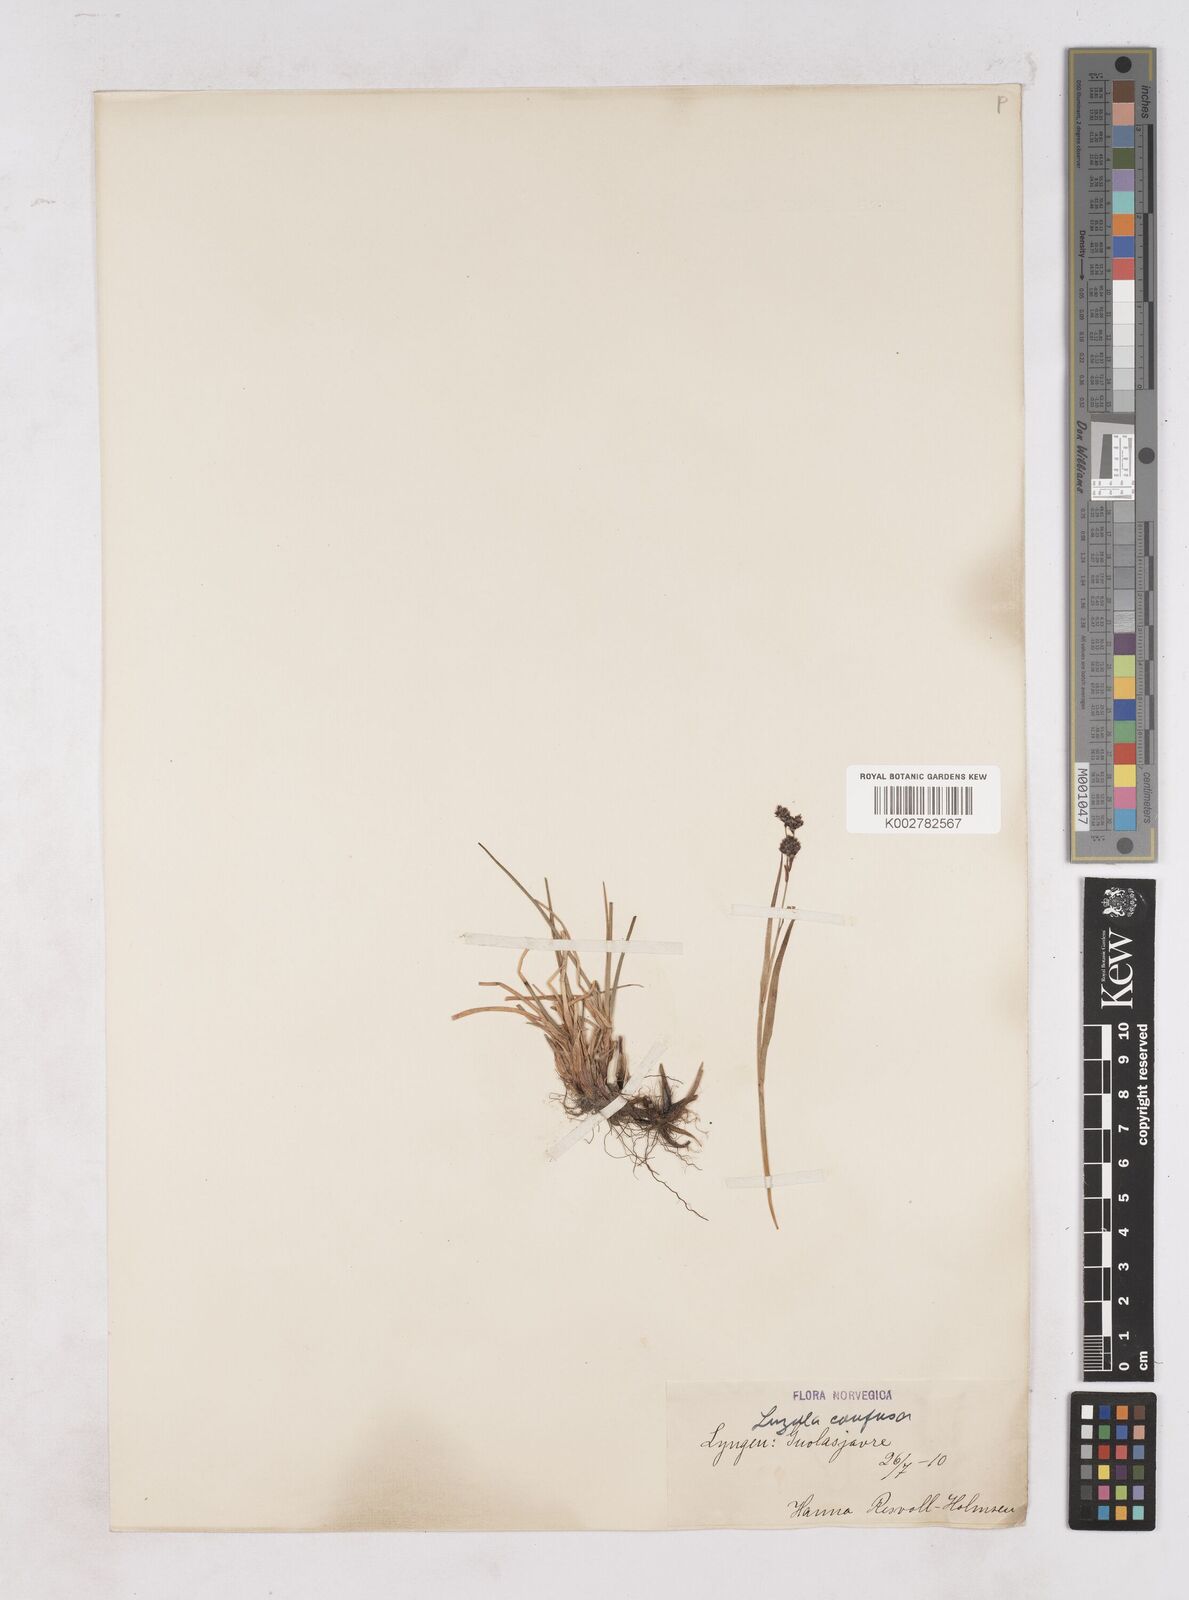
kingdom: Plantae
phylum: Tracheophyta
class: Liliopsida
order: Poales
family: Juncaceae
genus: Luzula
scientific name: Luzula confusa
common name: Northern wood rush
